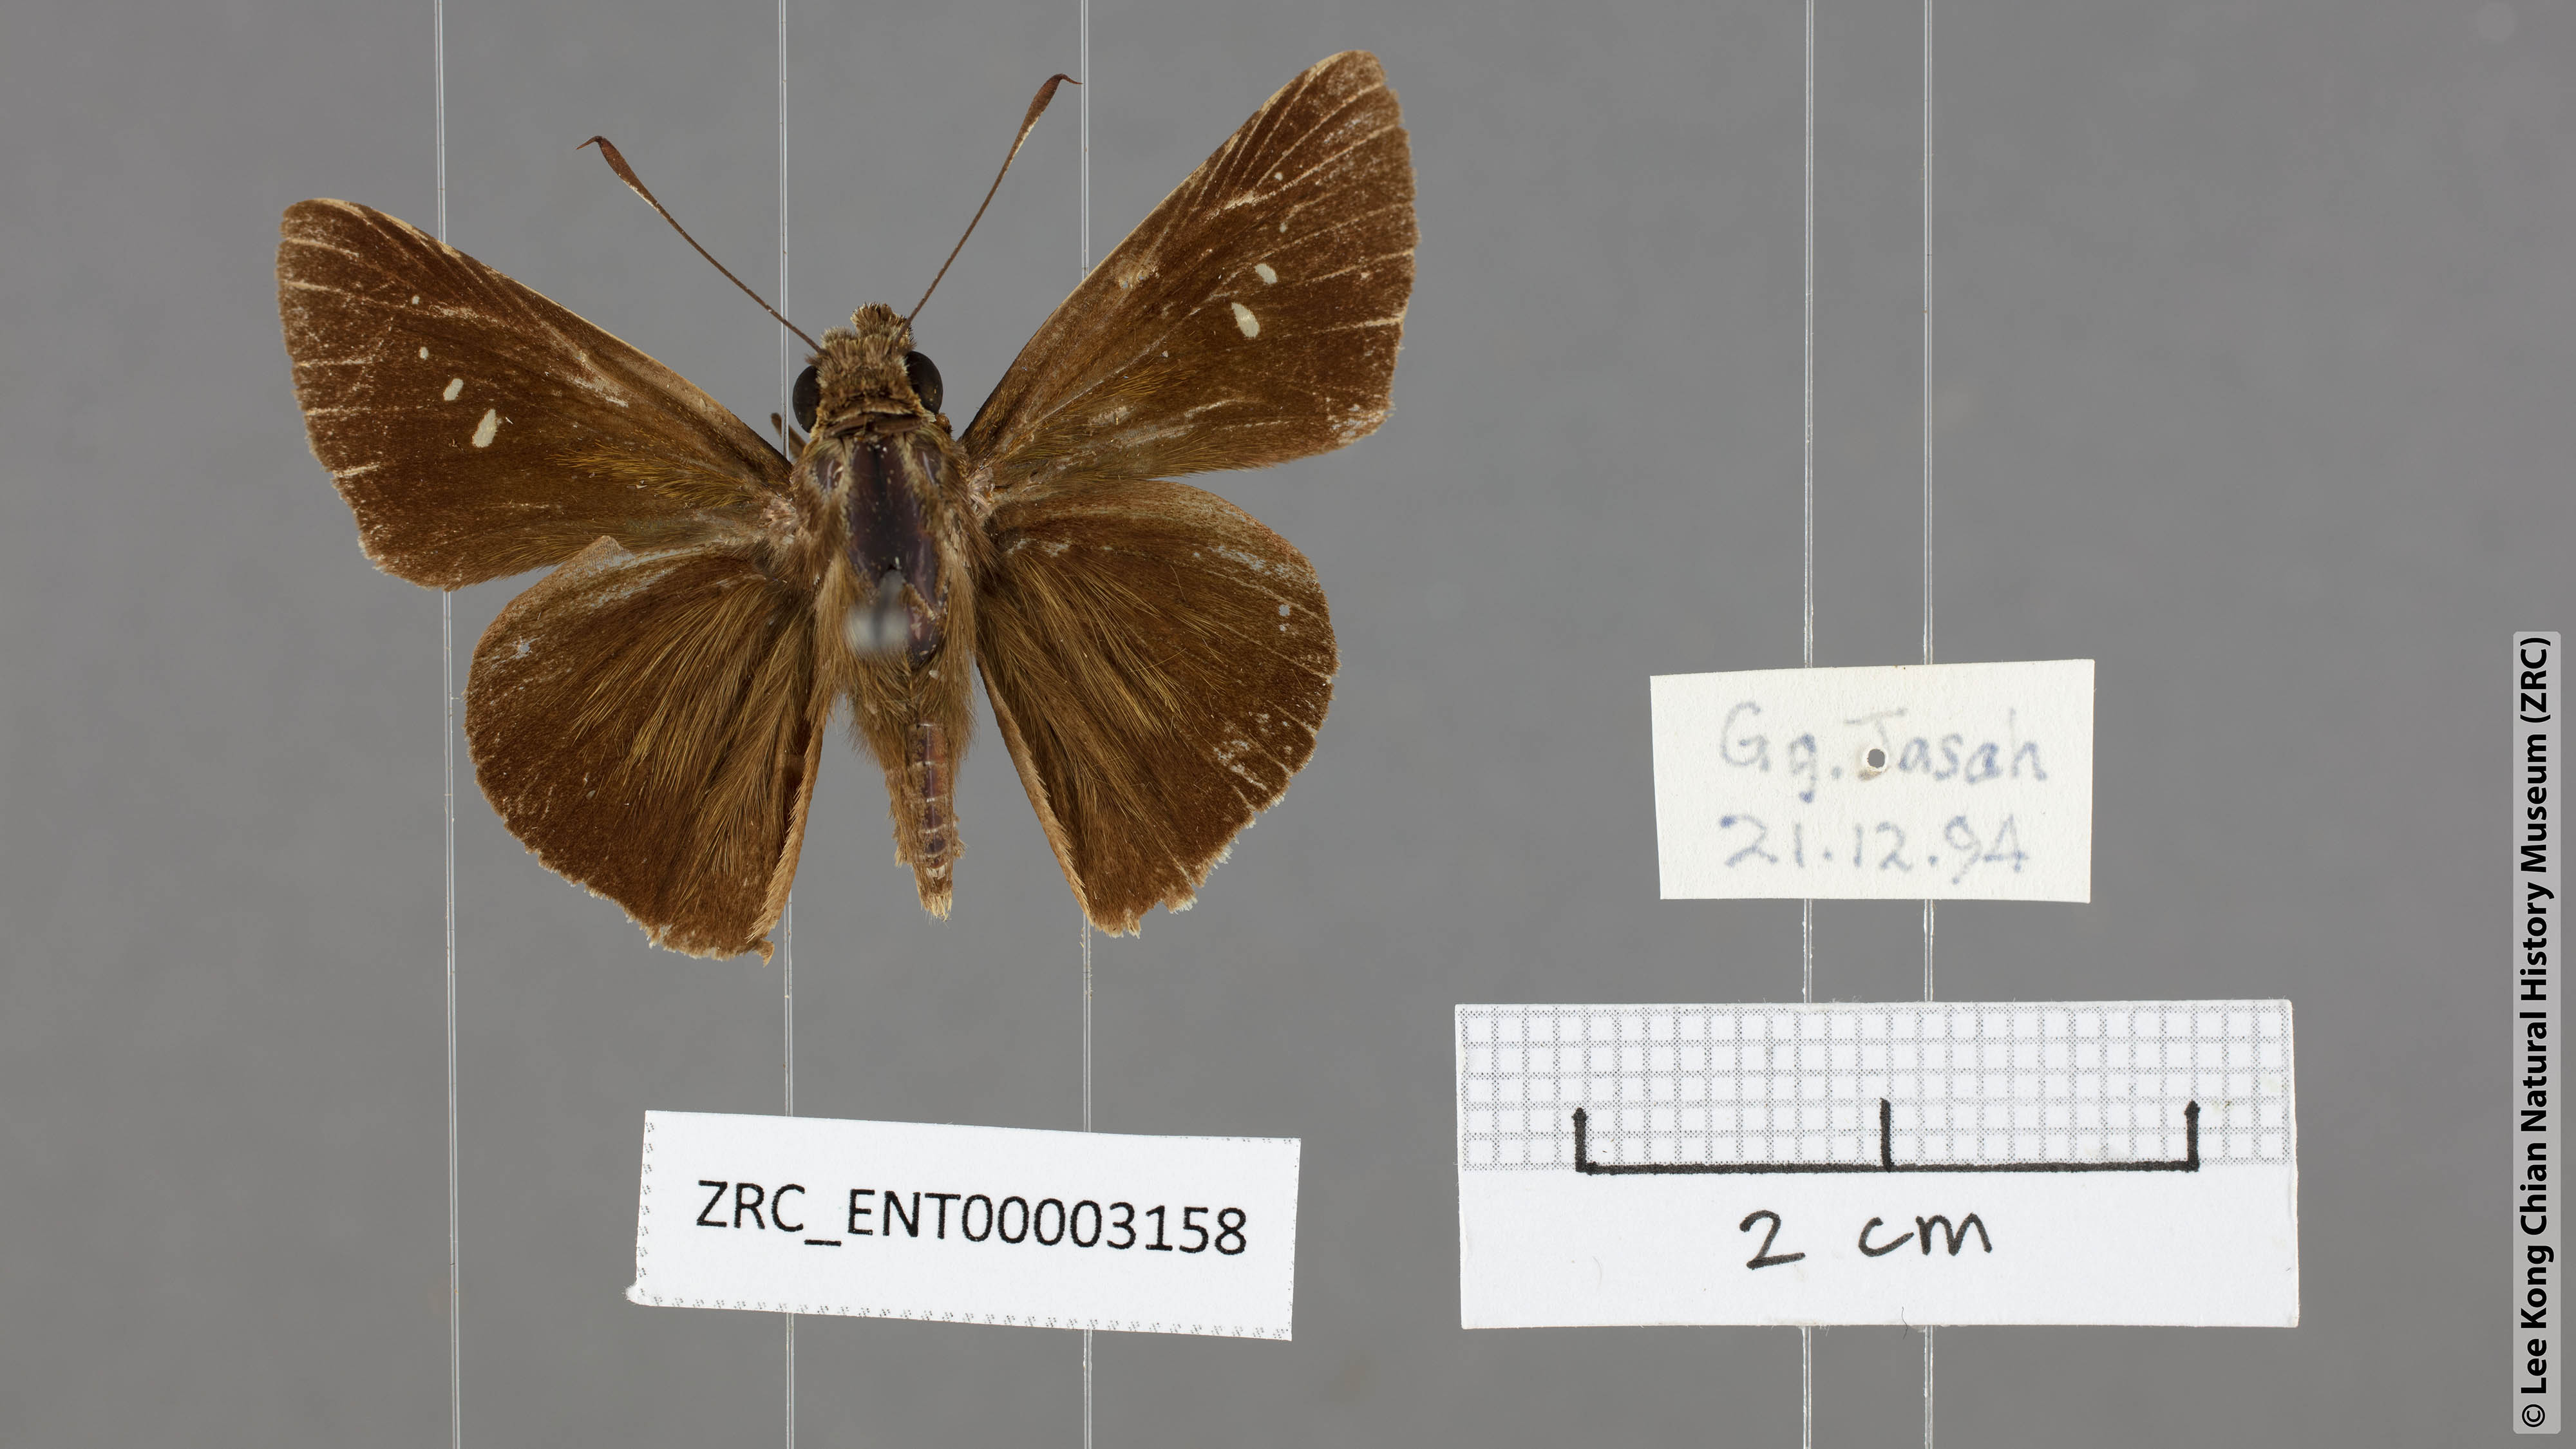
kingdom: Animalia
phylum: Arthropoda
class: Insecta
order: Lepidoptera
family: Hesperiidae
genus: Caltoris
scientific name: Caltoris malaya
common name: Malayan swift
